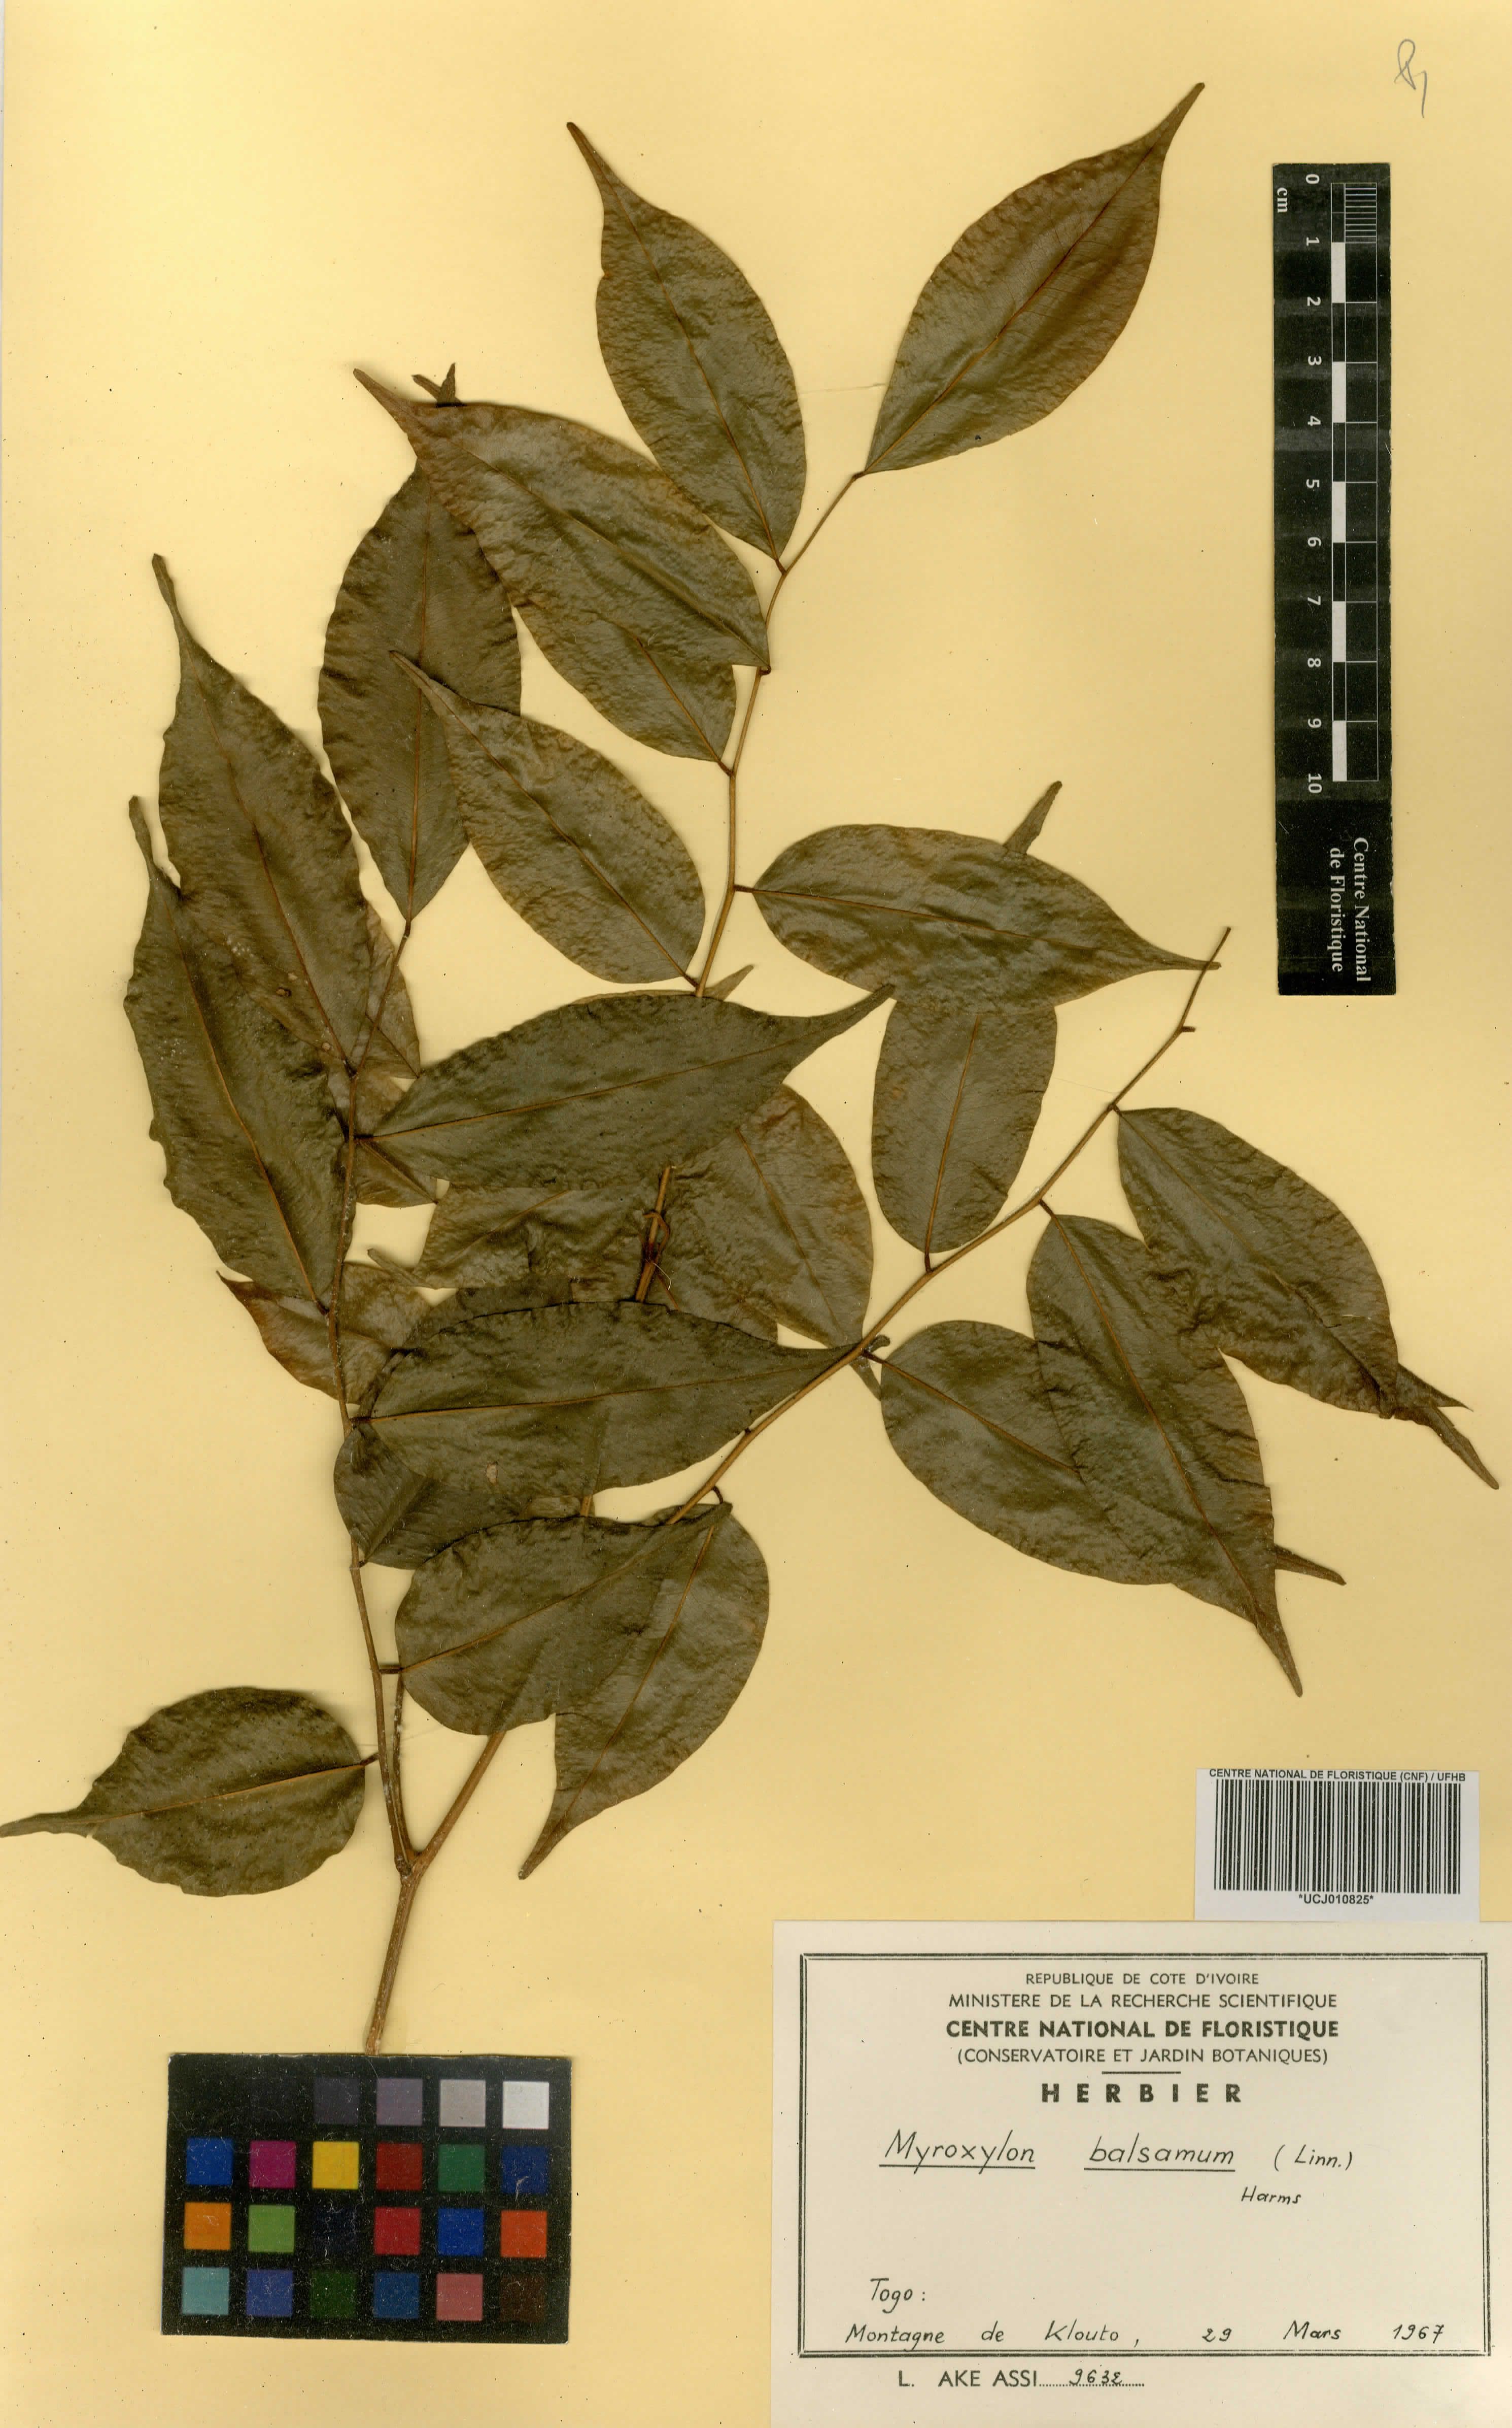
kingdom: Plantae
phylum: Tracheophyta
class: Magnoliopsida
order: Fabales
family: Fabaceae
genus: Myroxylon
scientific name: Myroxylon balsamum
